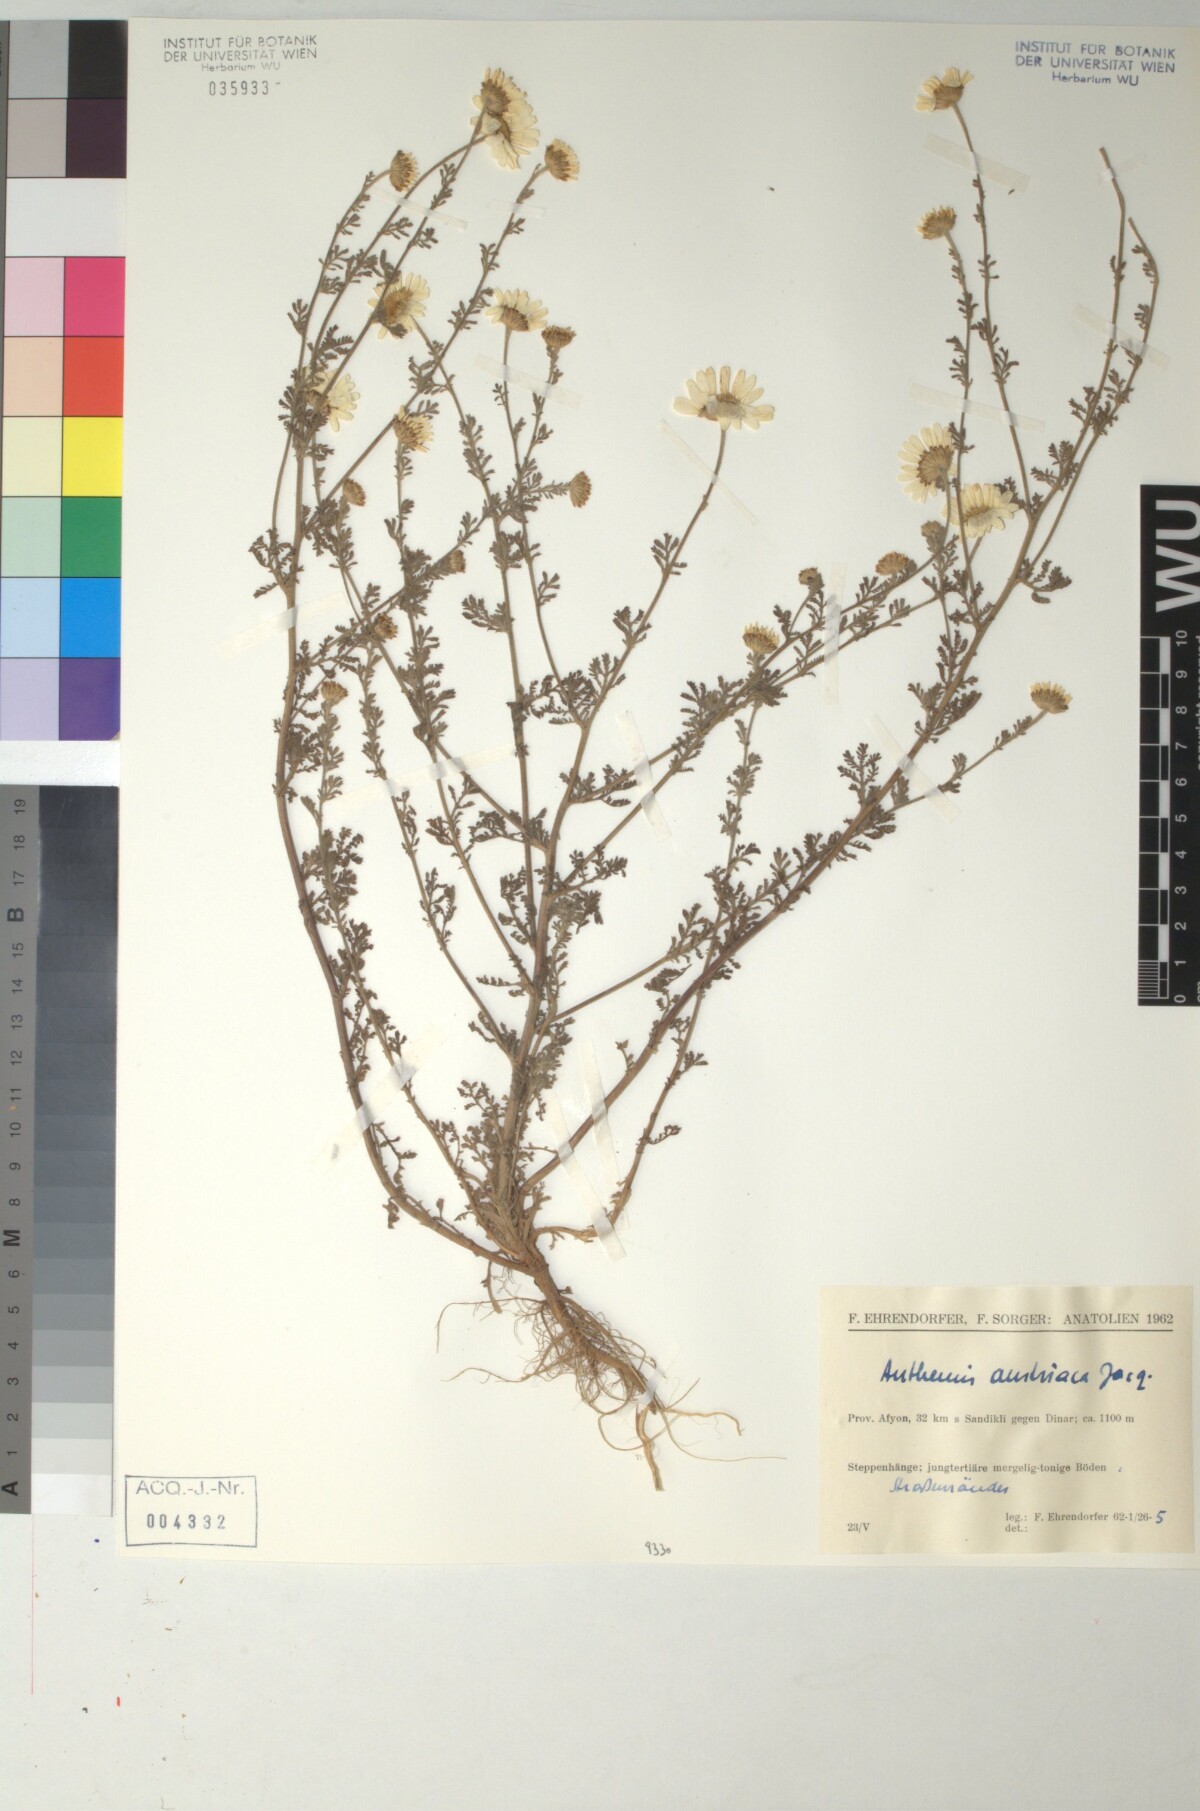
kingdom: Plantae
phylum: Tracheophyta
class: Magnoliopsida
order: Asterales
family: Asteraceae
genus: Cota
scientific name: Cota austriaca
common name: Austrian chamomile
